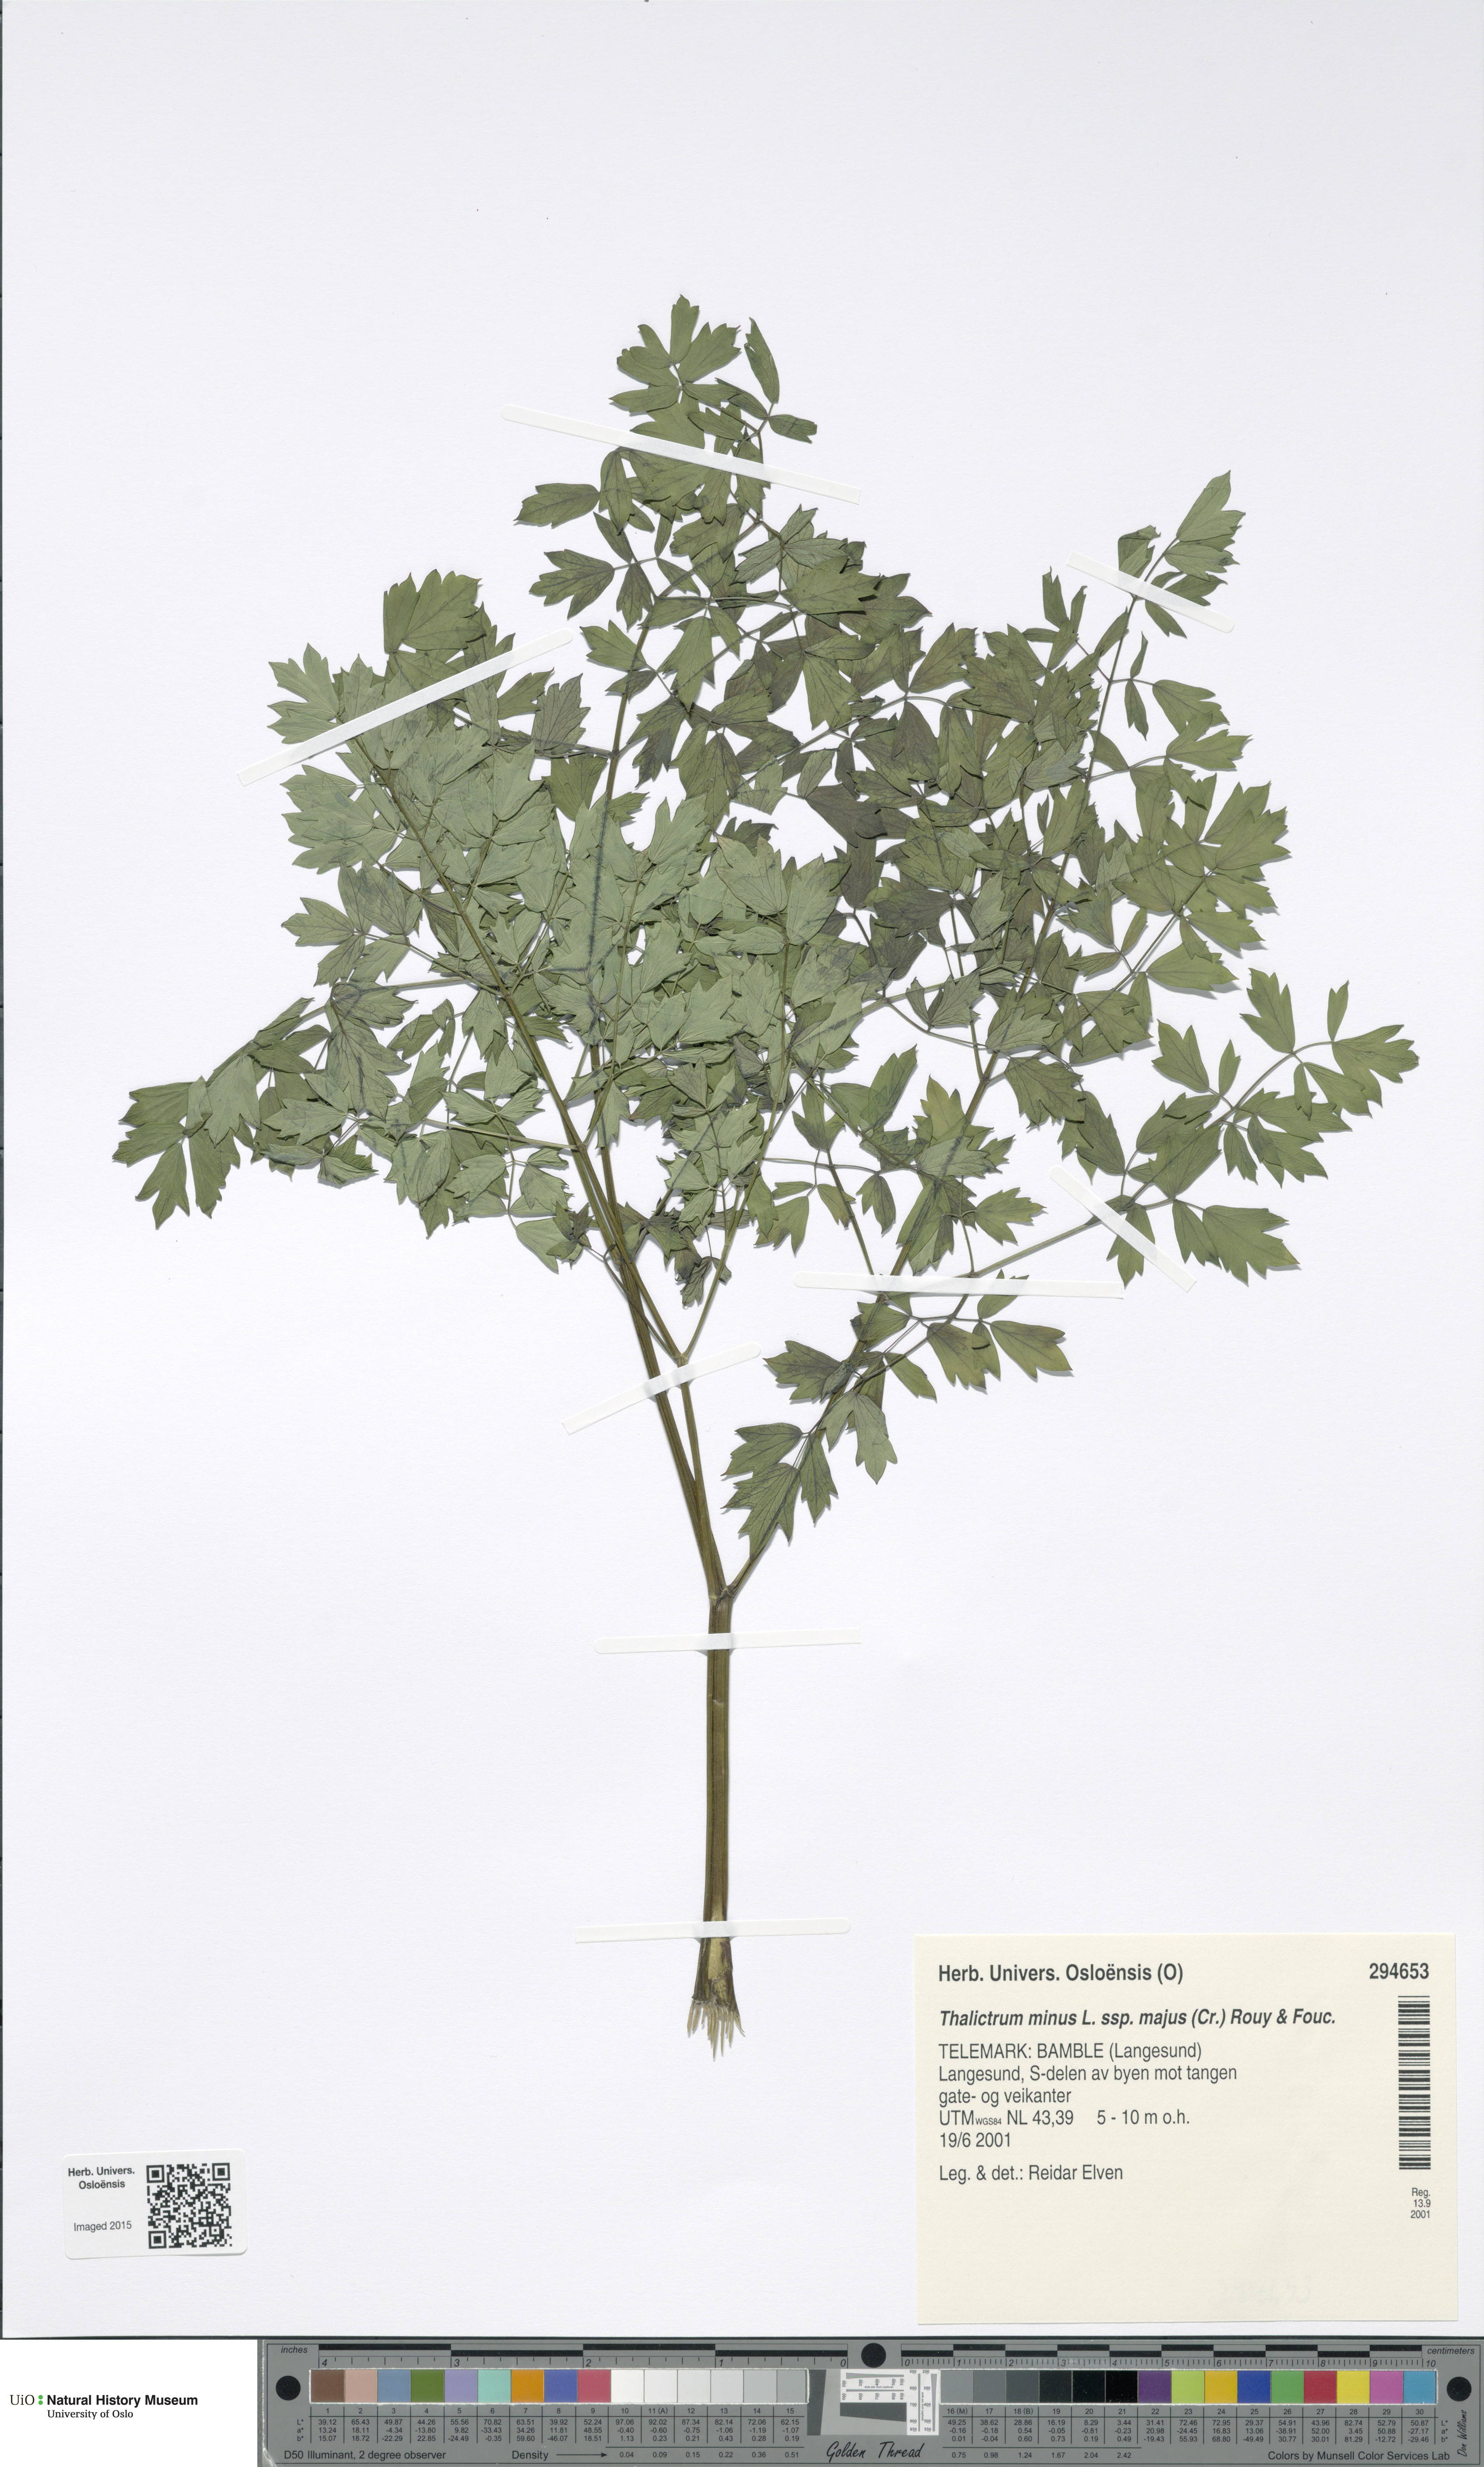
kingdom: Plantae
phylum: Tracheophyta
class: Magnoliopsida
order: Ranunculales
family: Ranunculaceae
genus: Thalictrum
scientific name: Thalictrum minus
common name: Lesser meadow-rue
